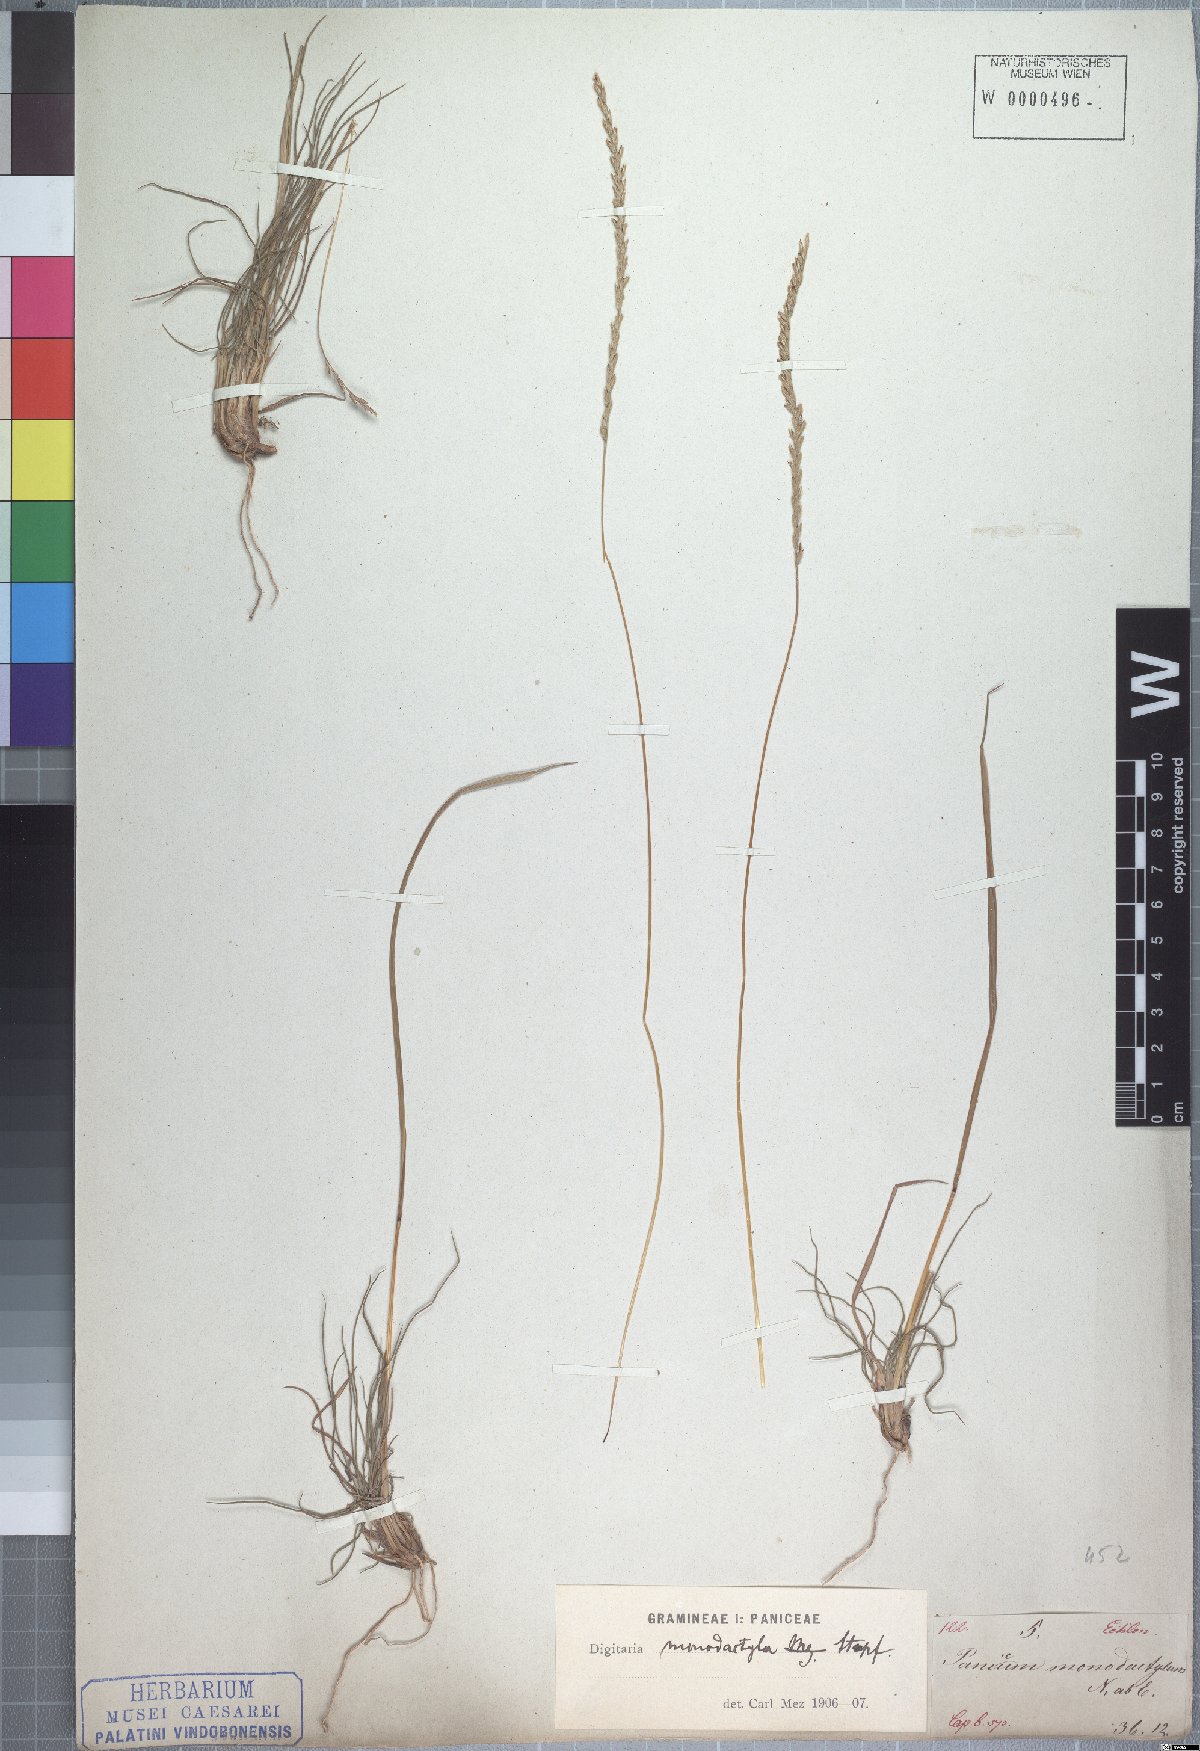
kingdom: Plantae
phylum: Tracheophyta
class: Liliopsida
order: Poales
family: Poaceae
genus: Digitaria
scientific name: Digitaria monodactyla
